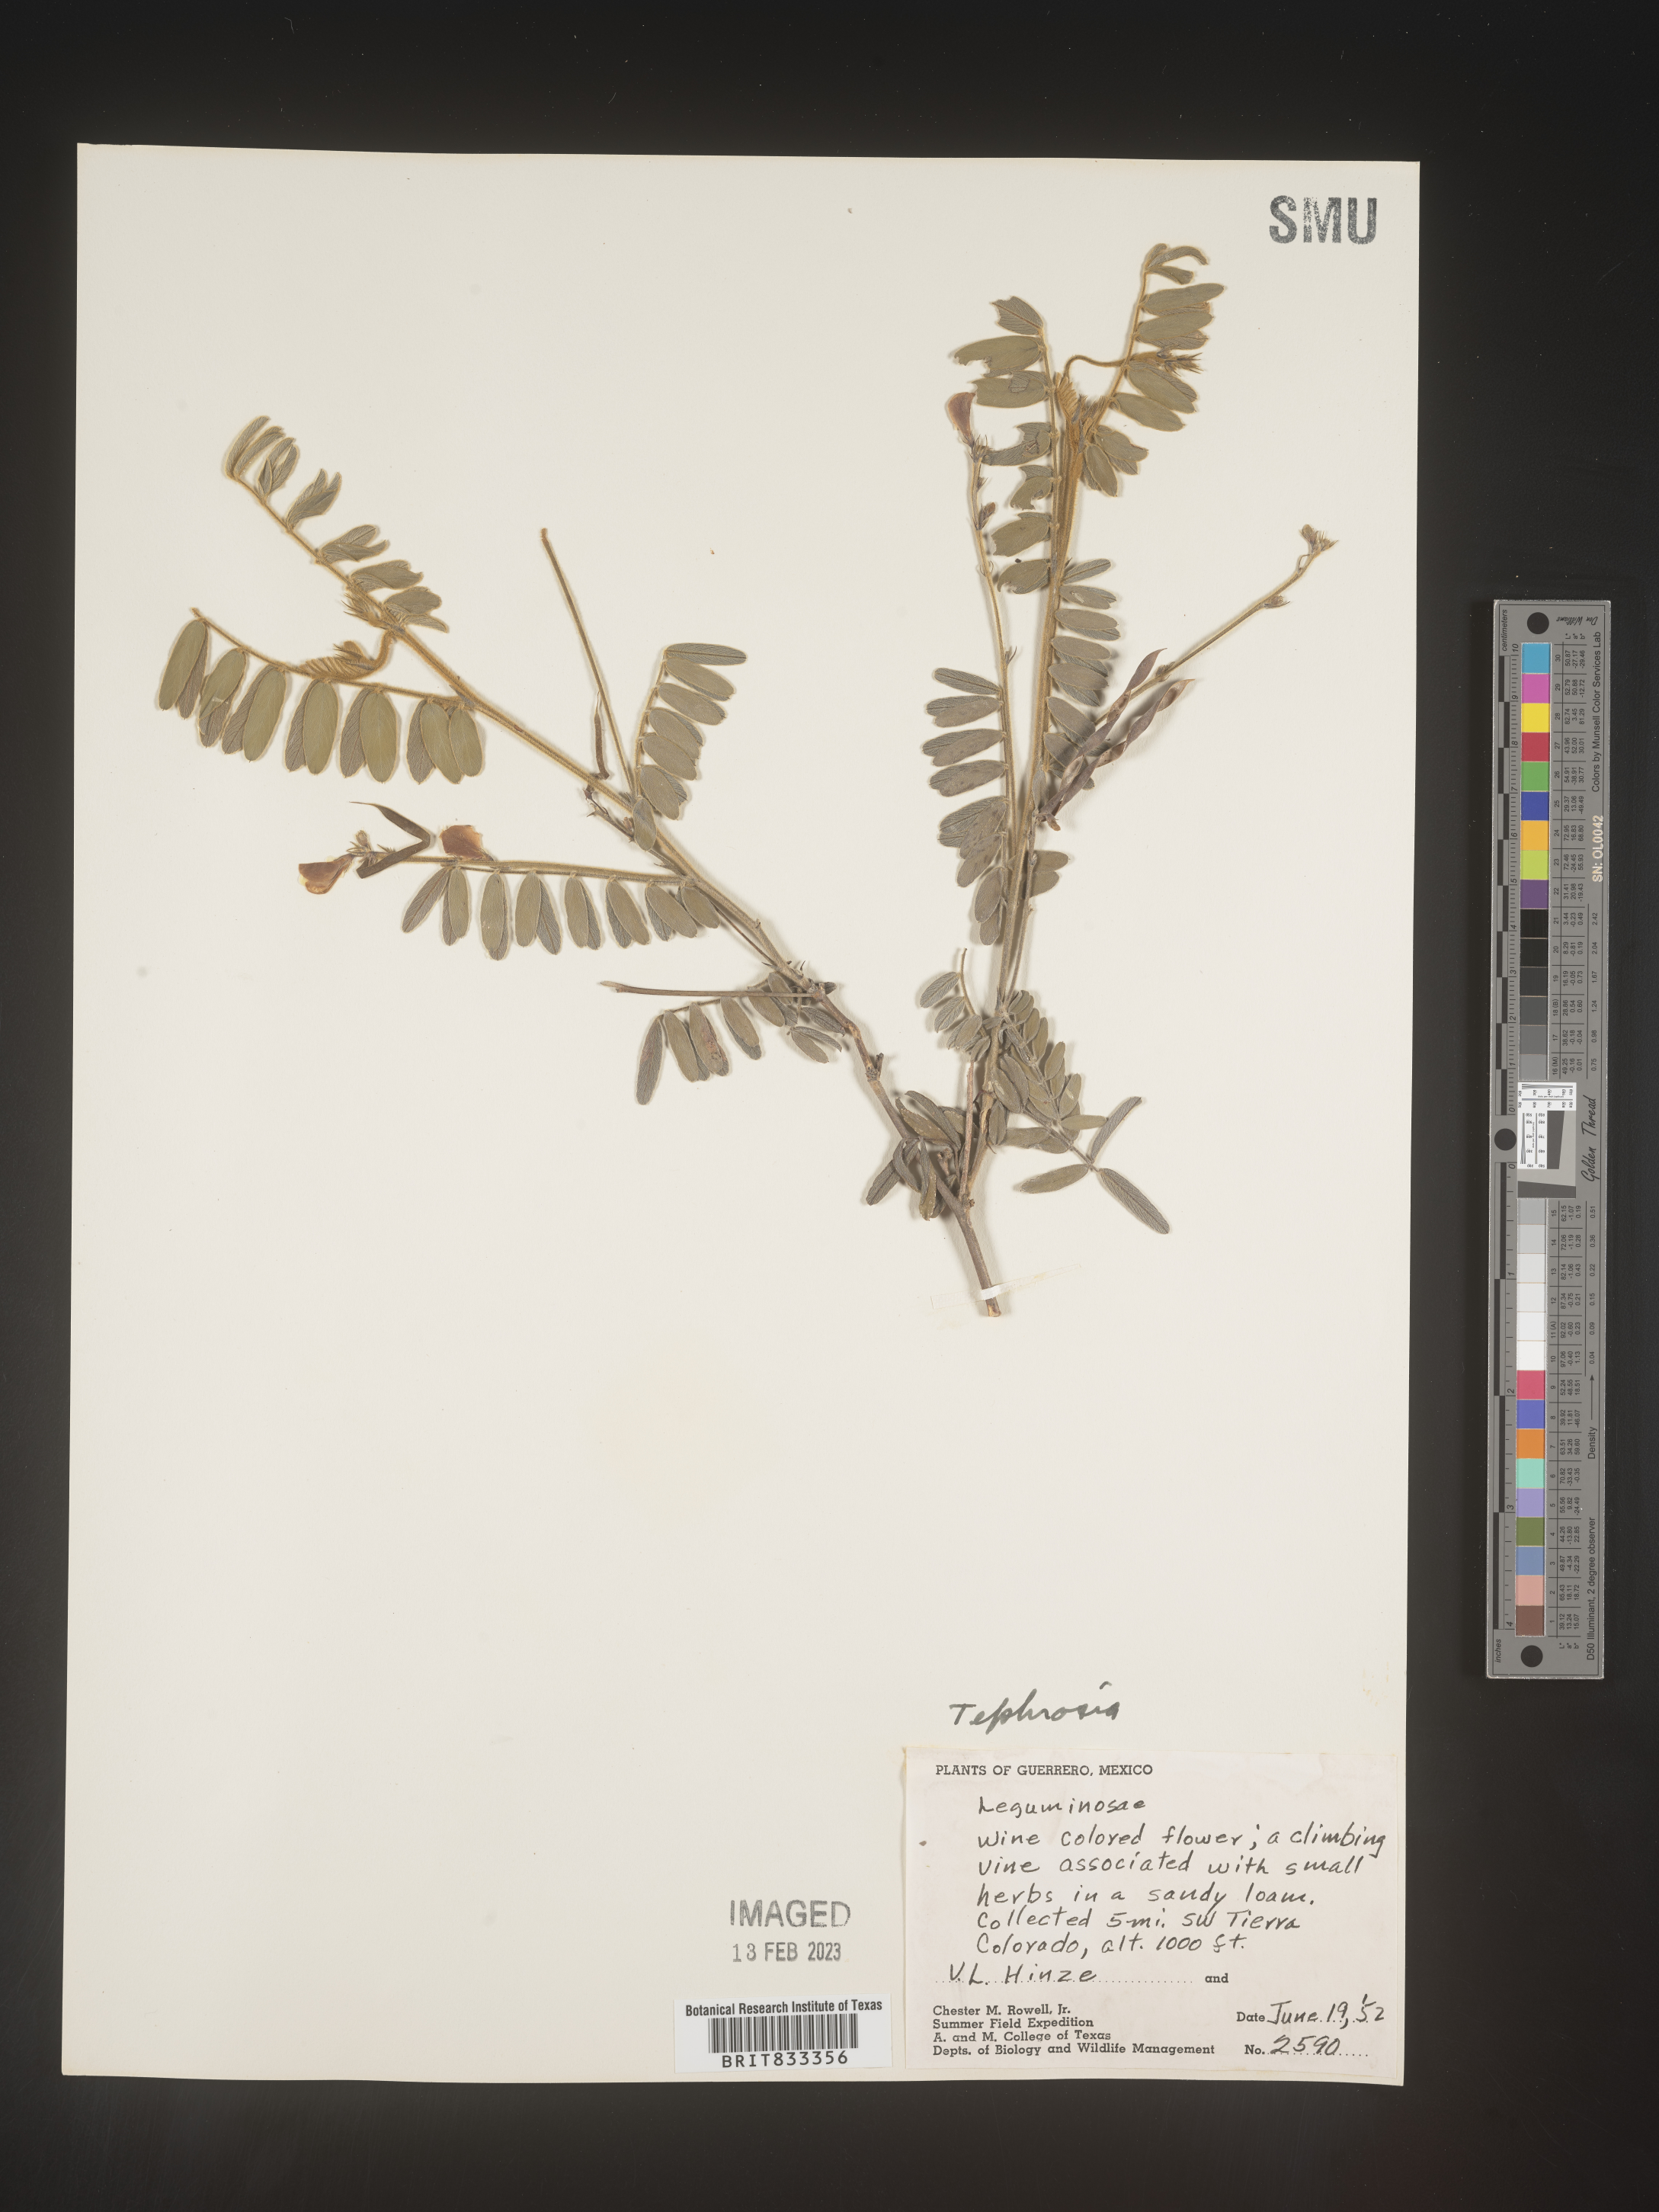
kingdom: Plantae
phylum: Tracheophyta
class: Magnoliopsida
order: Fabales
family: Fabaceae
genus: Tephrosia
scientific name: Tephrosia
